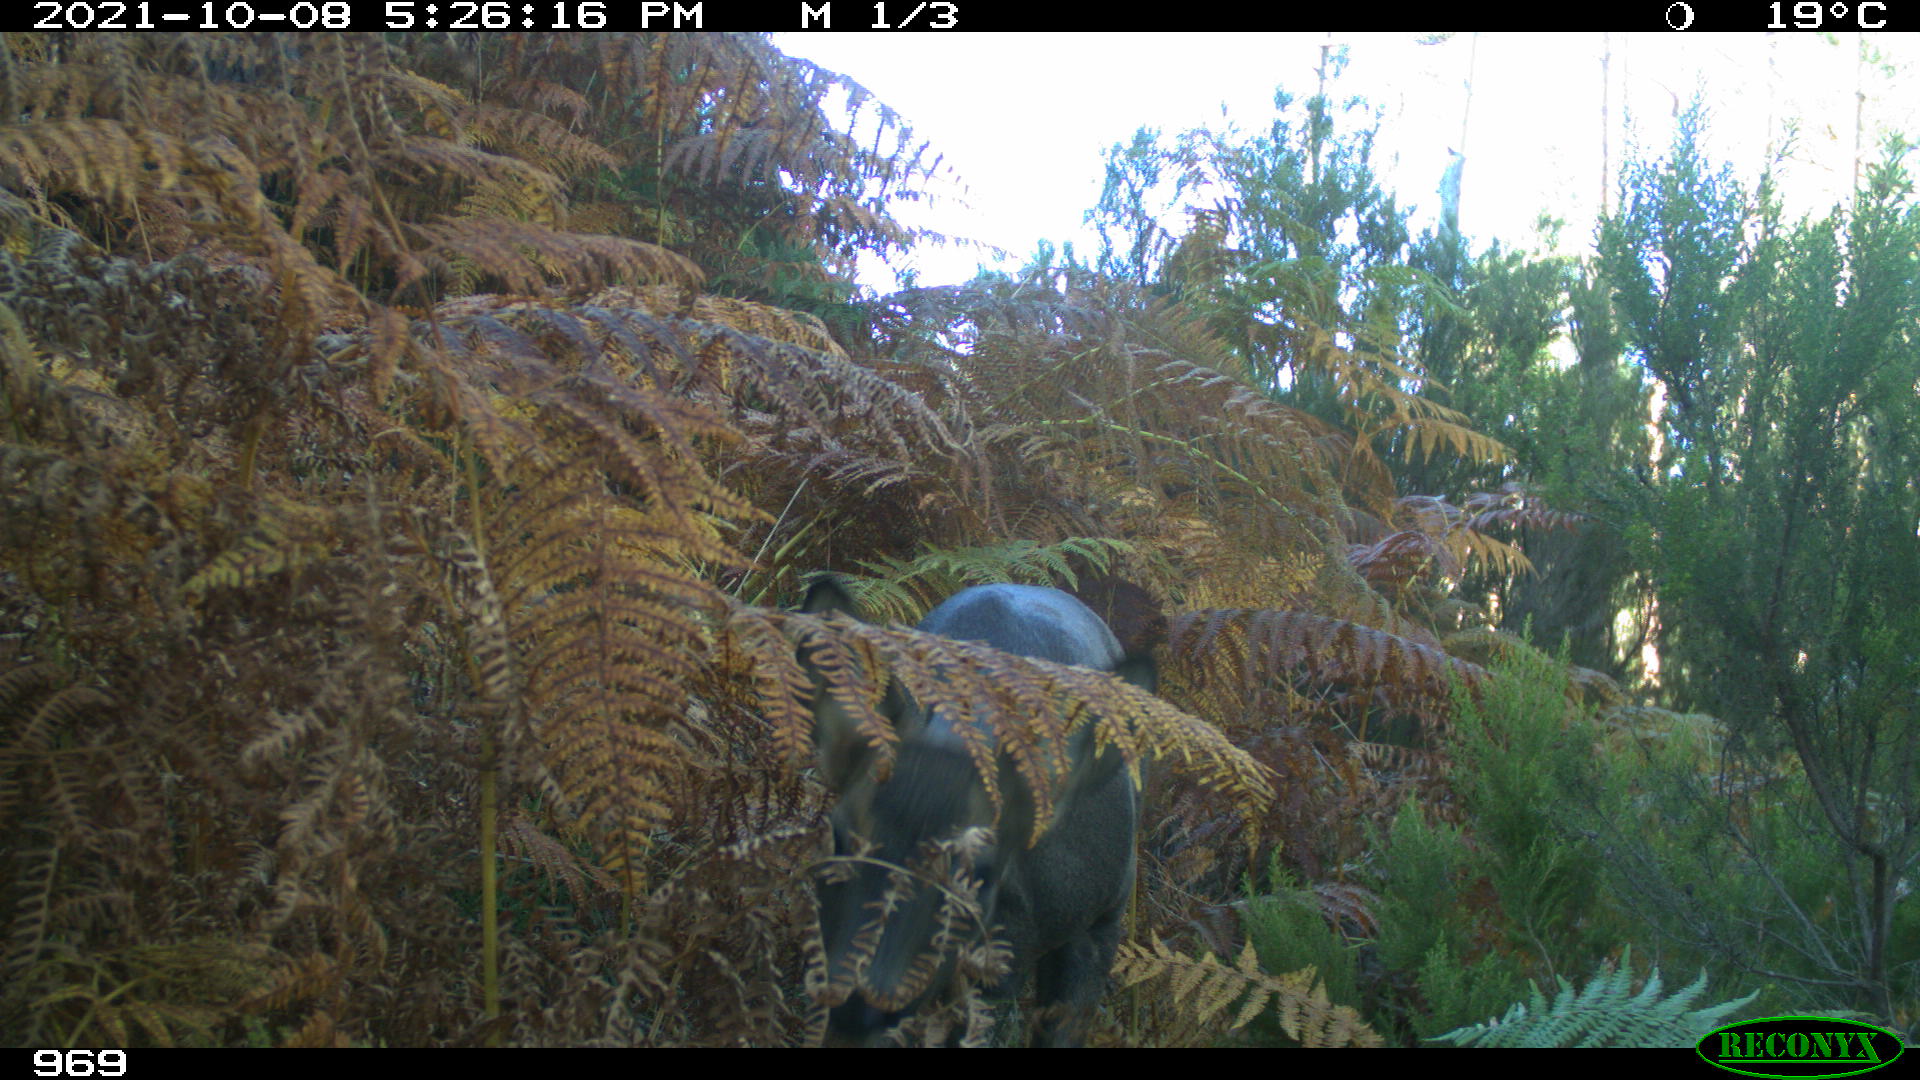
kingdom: Animalia
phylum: Chordata
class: Mammalia
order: Artiodactyla
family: Cervidae
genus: Cervus
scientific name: Cervus elaphus
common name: Red deer
